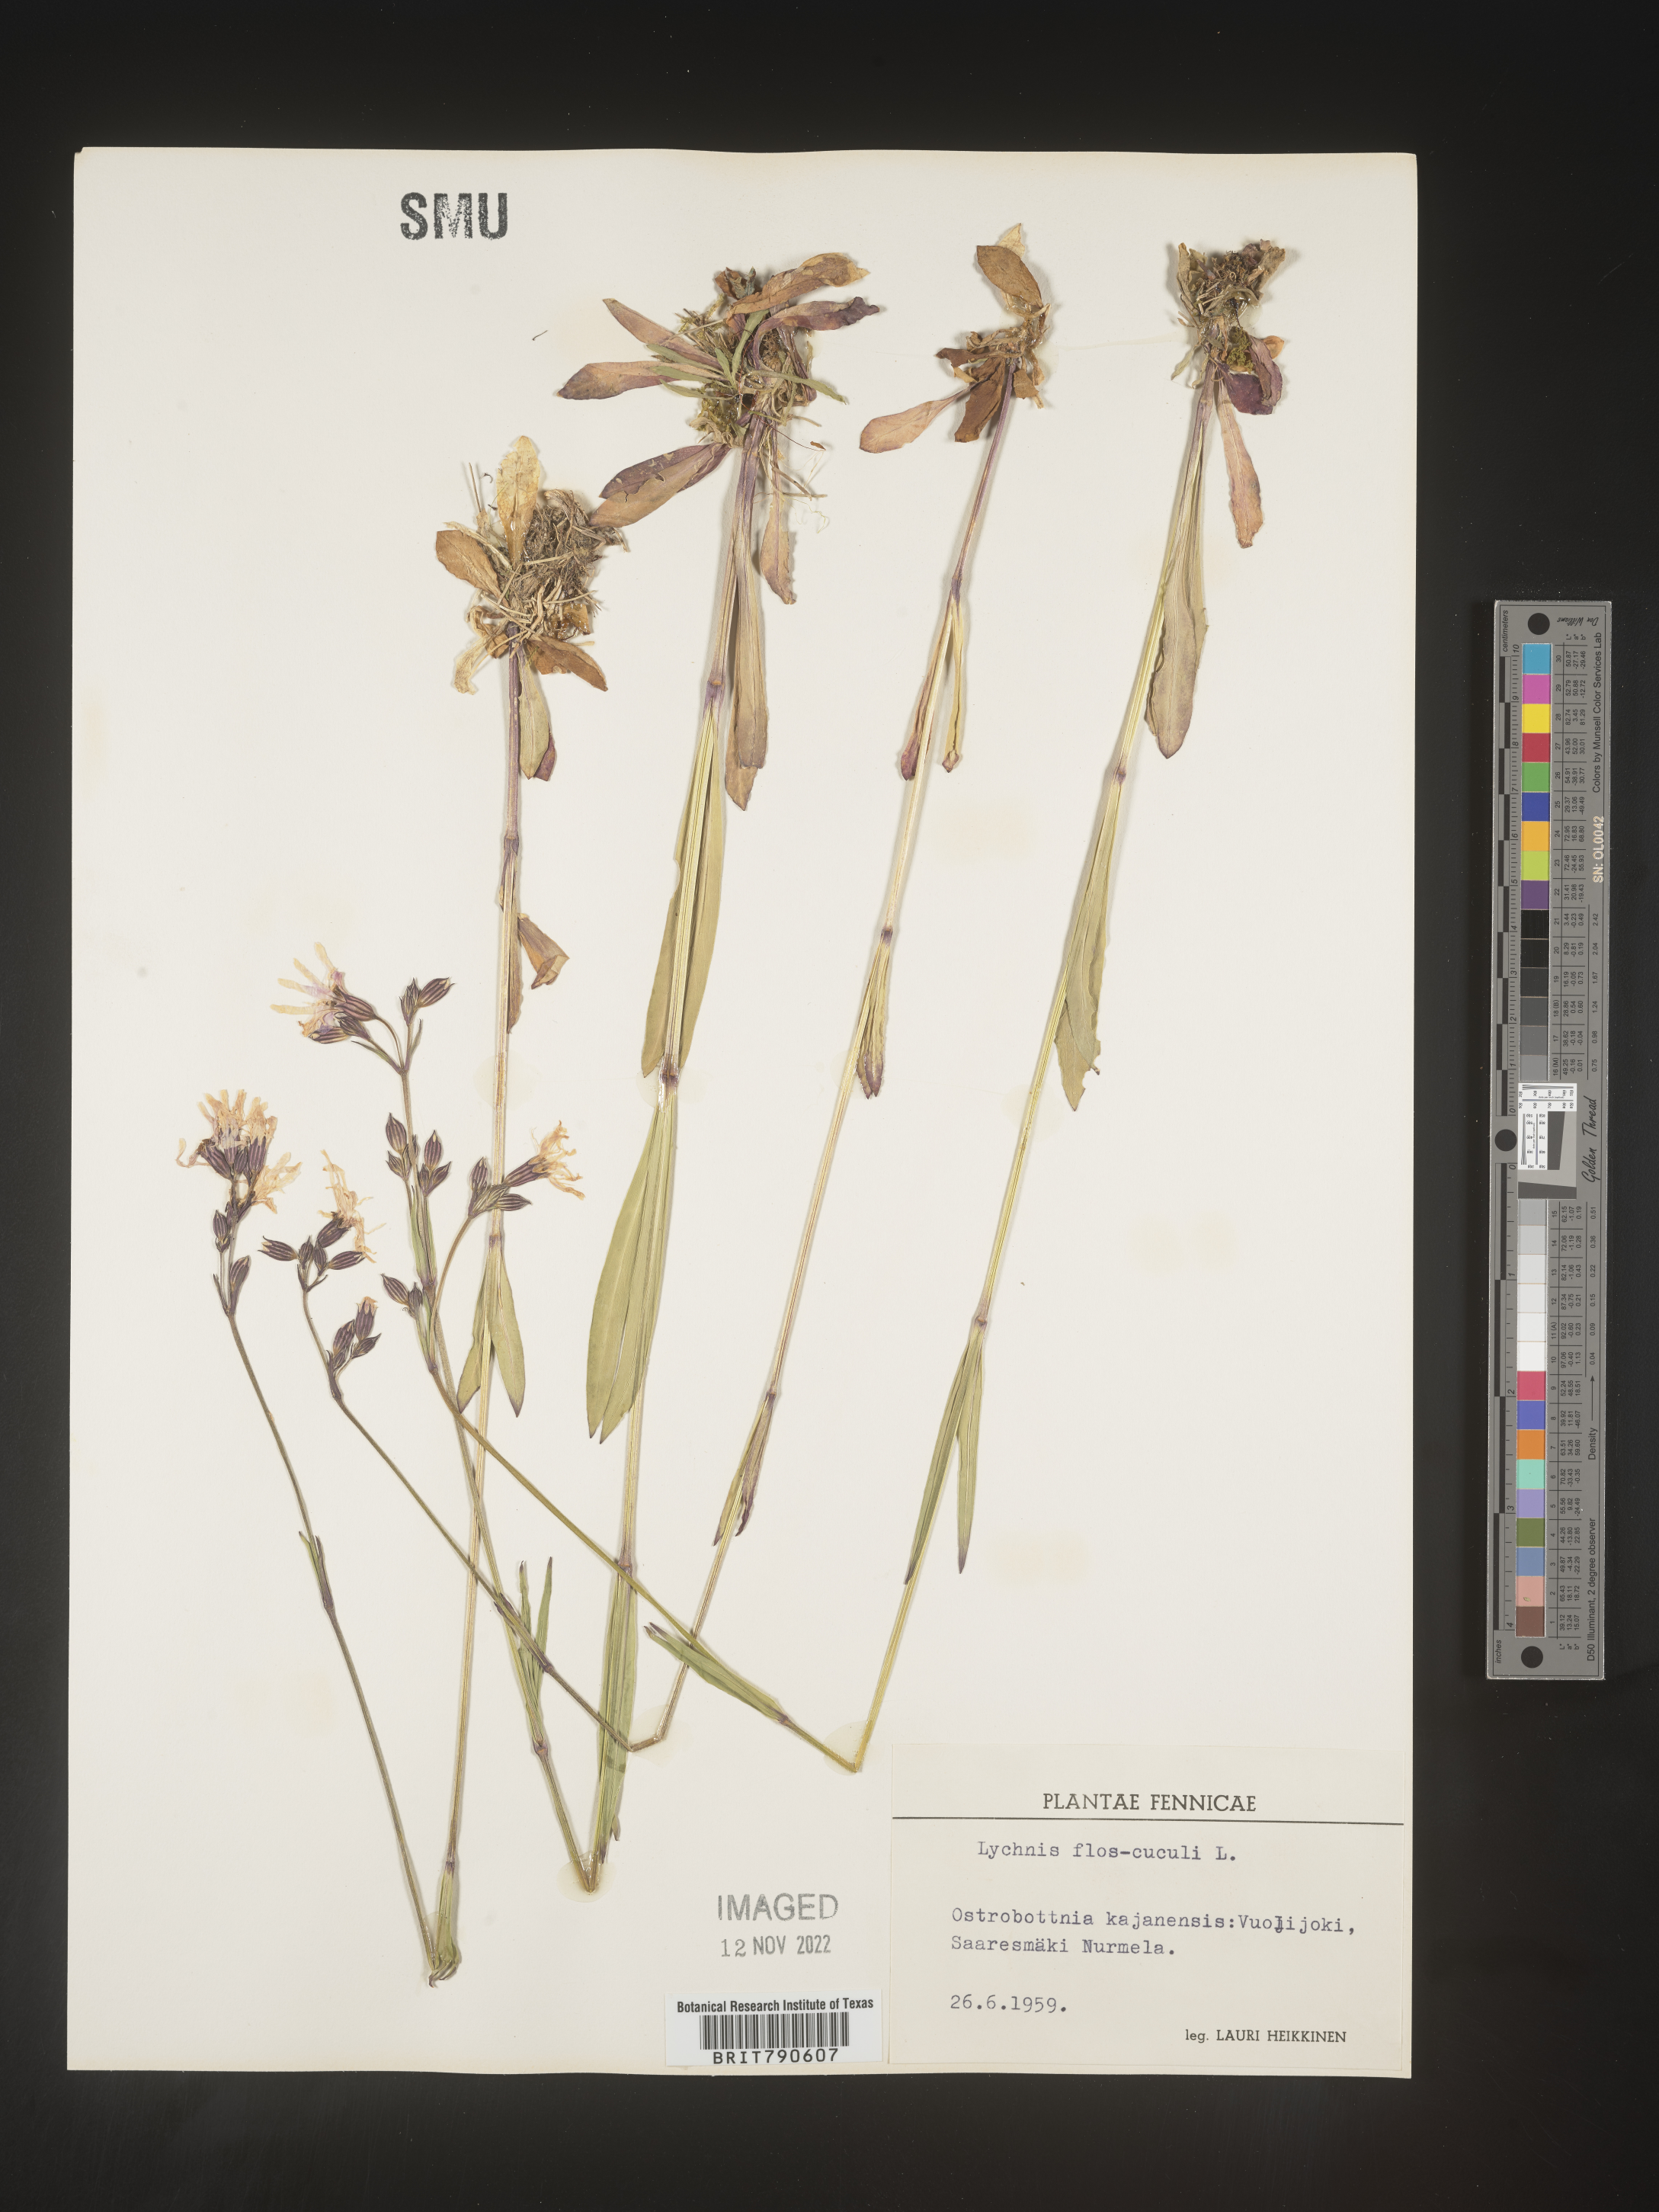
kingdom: Plantae
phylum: Tracheophyta
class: Magnoliopsida
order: Caryophyllales
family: Caryophyllaceae
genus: Silene
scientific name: Silene
